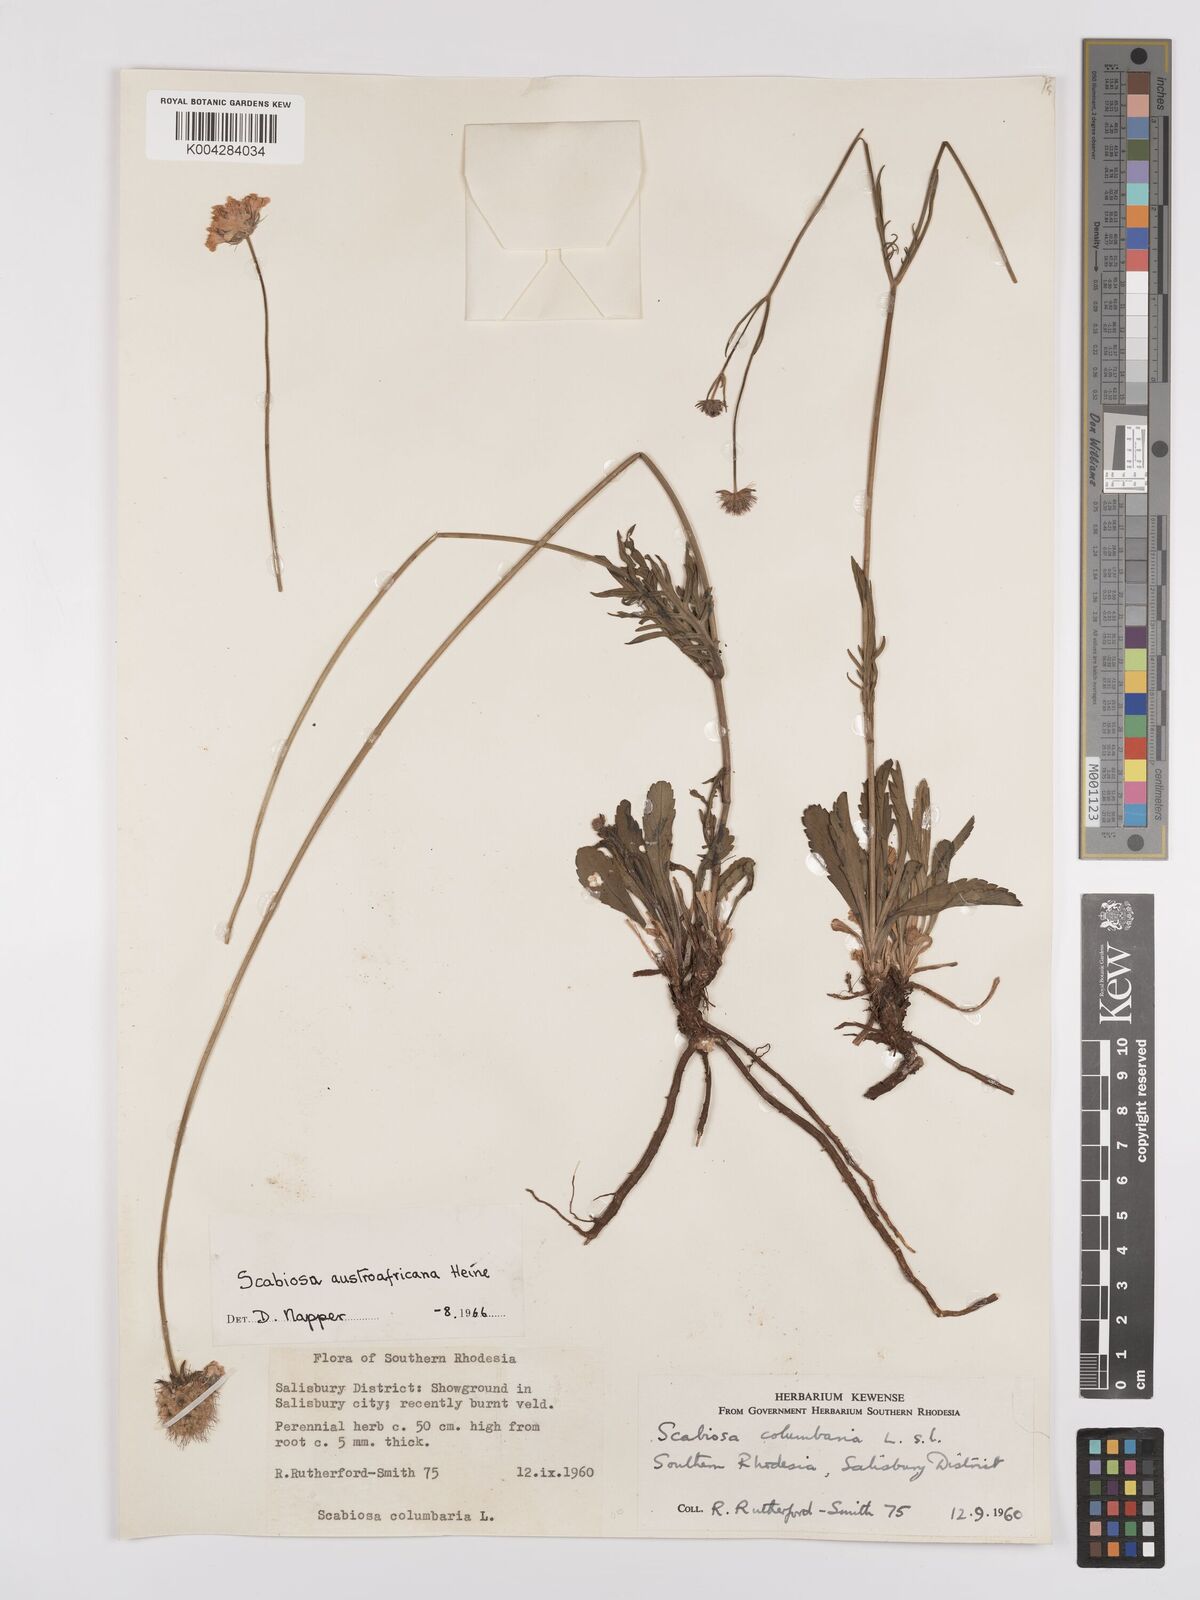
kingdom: Plantae
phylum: Tracheophyta
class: Magnoliopsida
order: Dipsacales
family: Caprifoliaceae
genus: Scabiosa
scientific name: Scabiosa austroafricana
